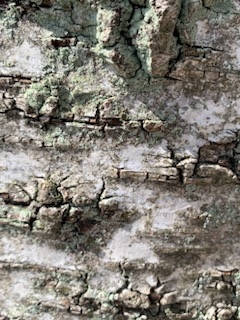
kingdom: Fungi
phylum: Ascomycota
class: Lecanoromycetes
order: Lecanorales
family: Stereocaulaceae
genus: Lepraria
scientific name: Lepraria
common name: Støvlav
